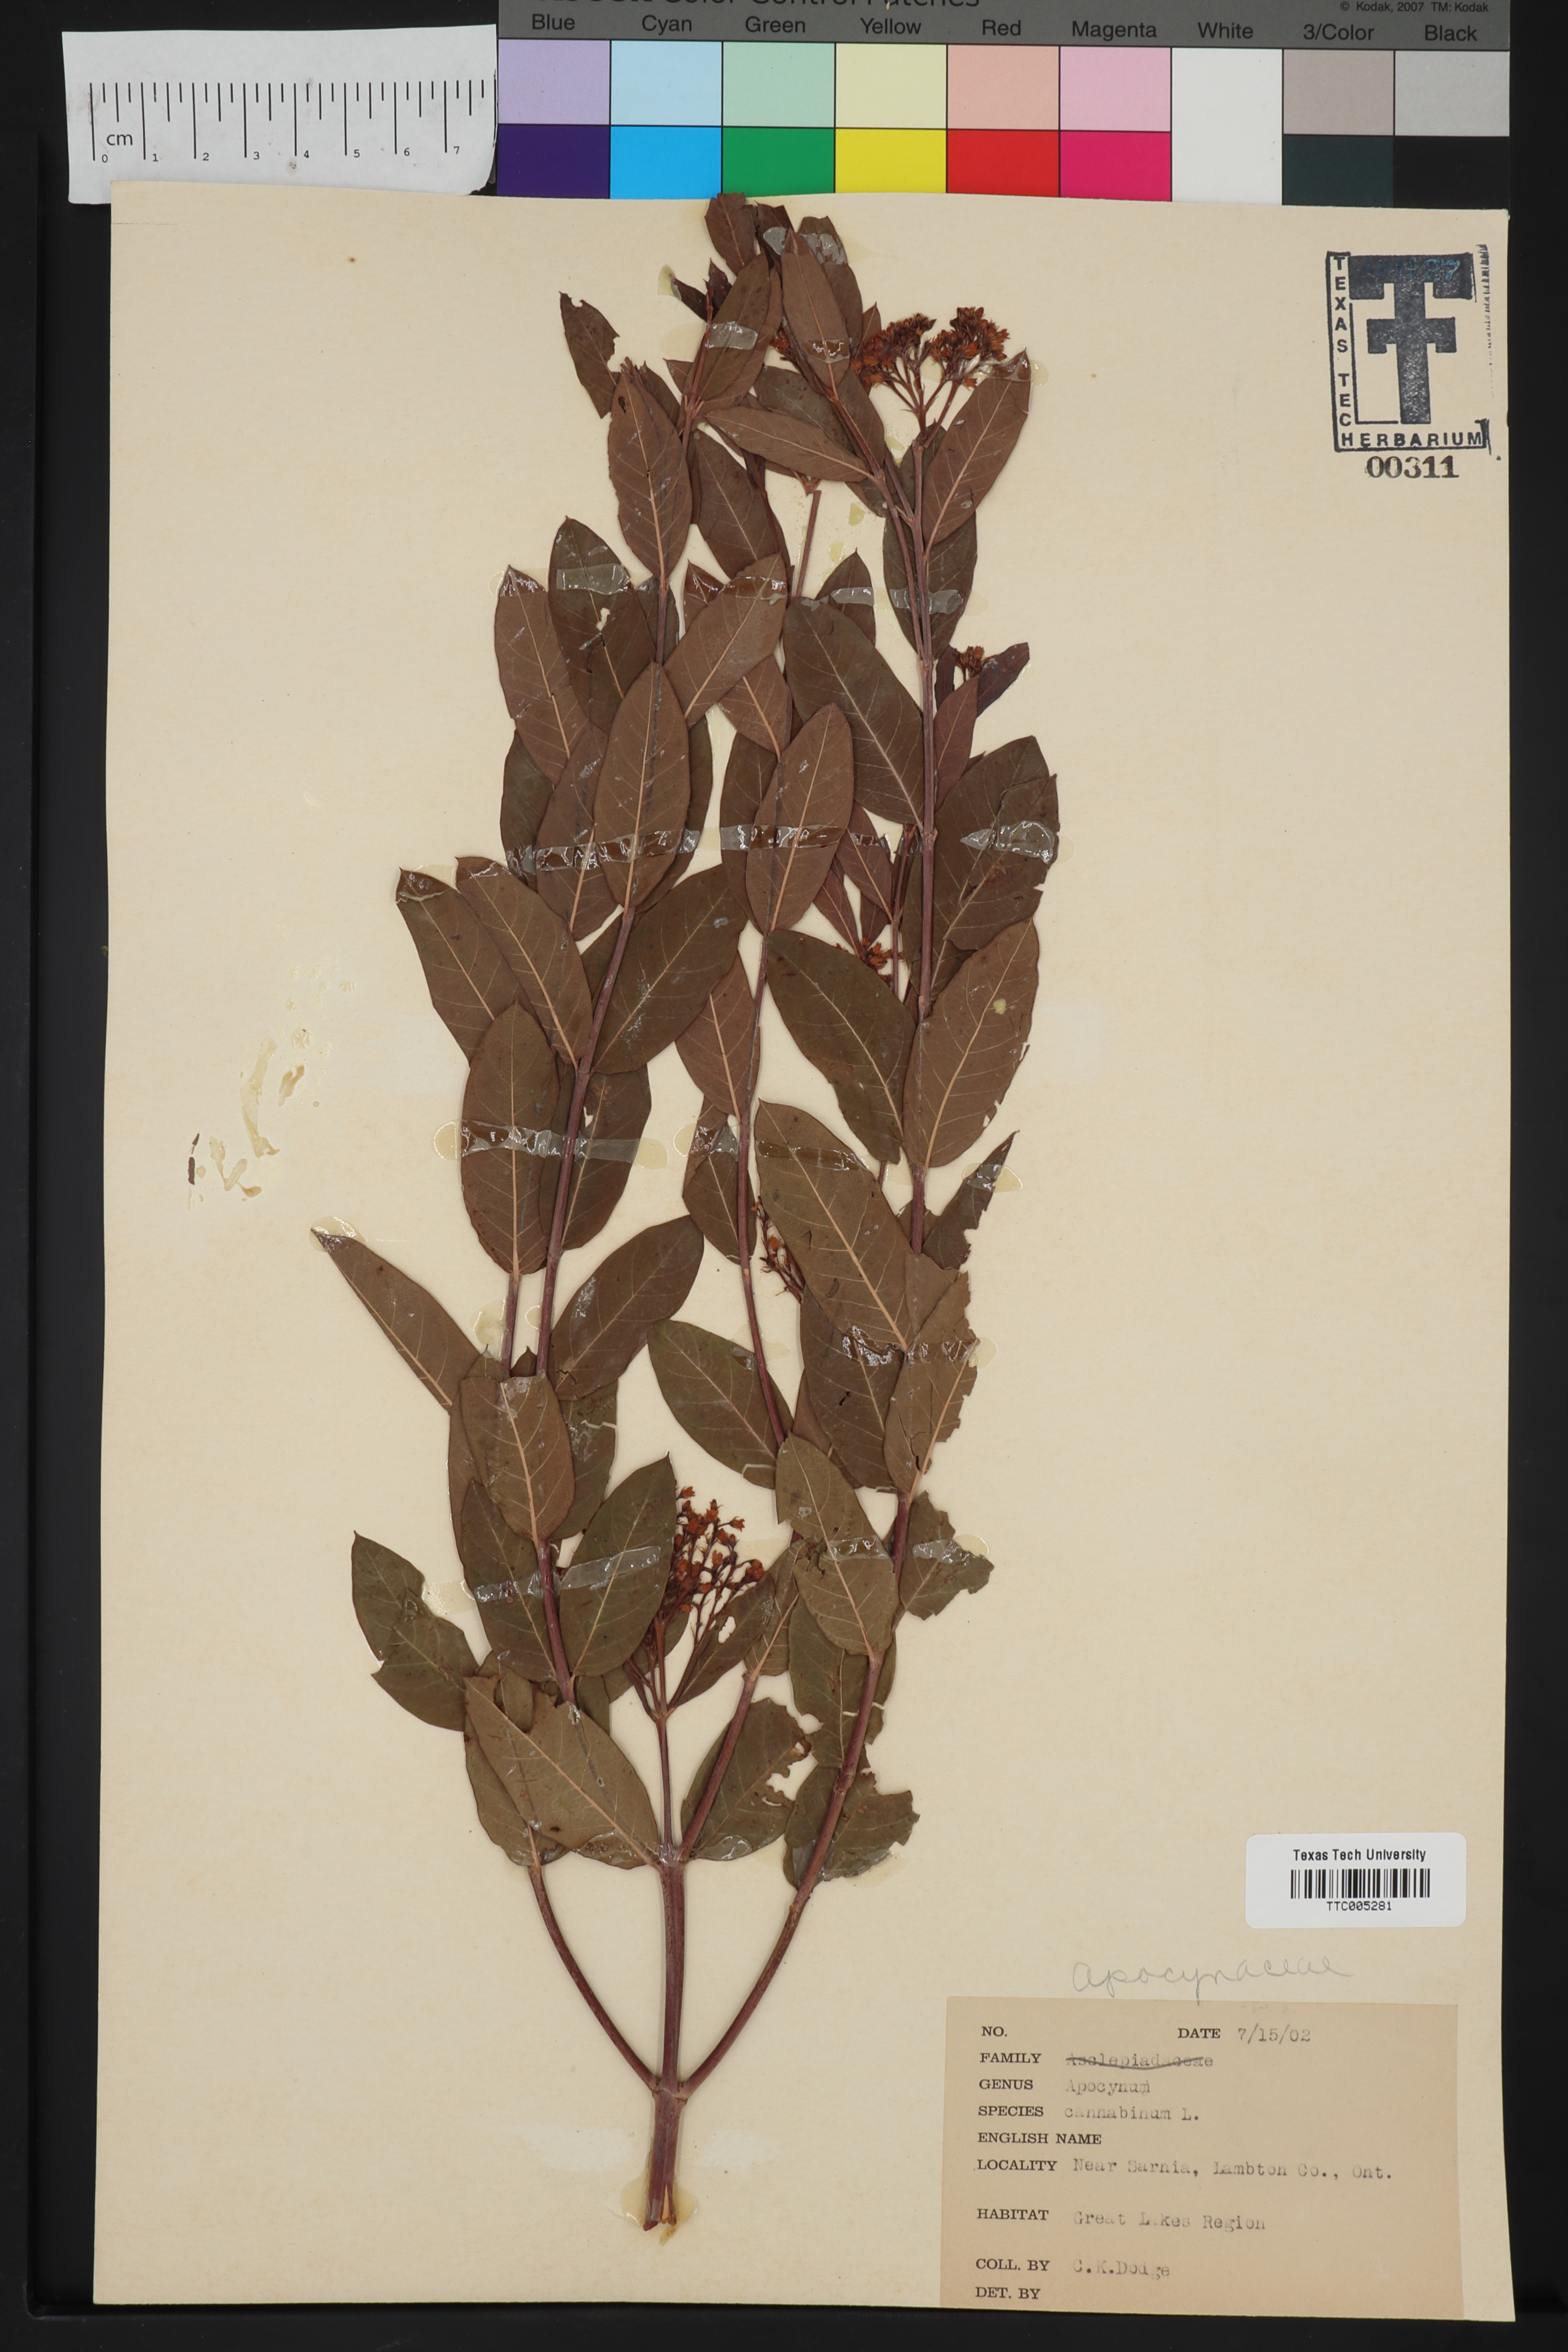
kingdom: Plantae
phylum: Tracheophyta
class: Magnoliopsida
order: Gentianales
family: Apocynaceae
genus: Apocynum
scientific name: Apocynum cannabinum
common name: Hemp dogbane
